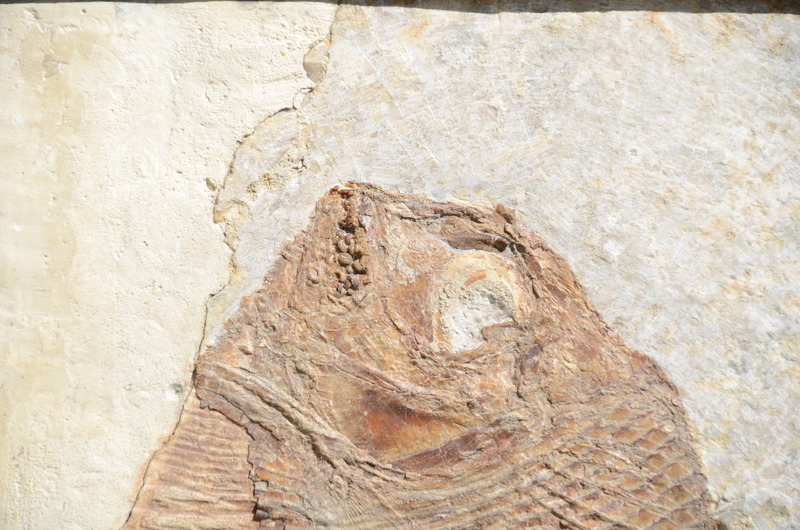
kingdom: Animalia
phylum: Chordata
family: Gyrodontidae
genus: Gyrodus
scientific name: Gyrodus hexagonus
